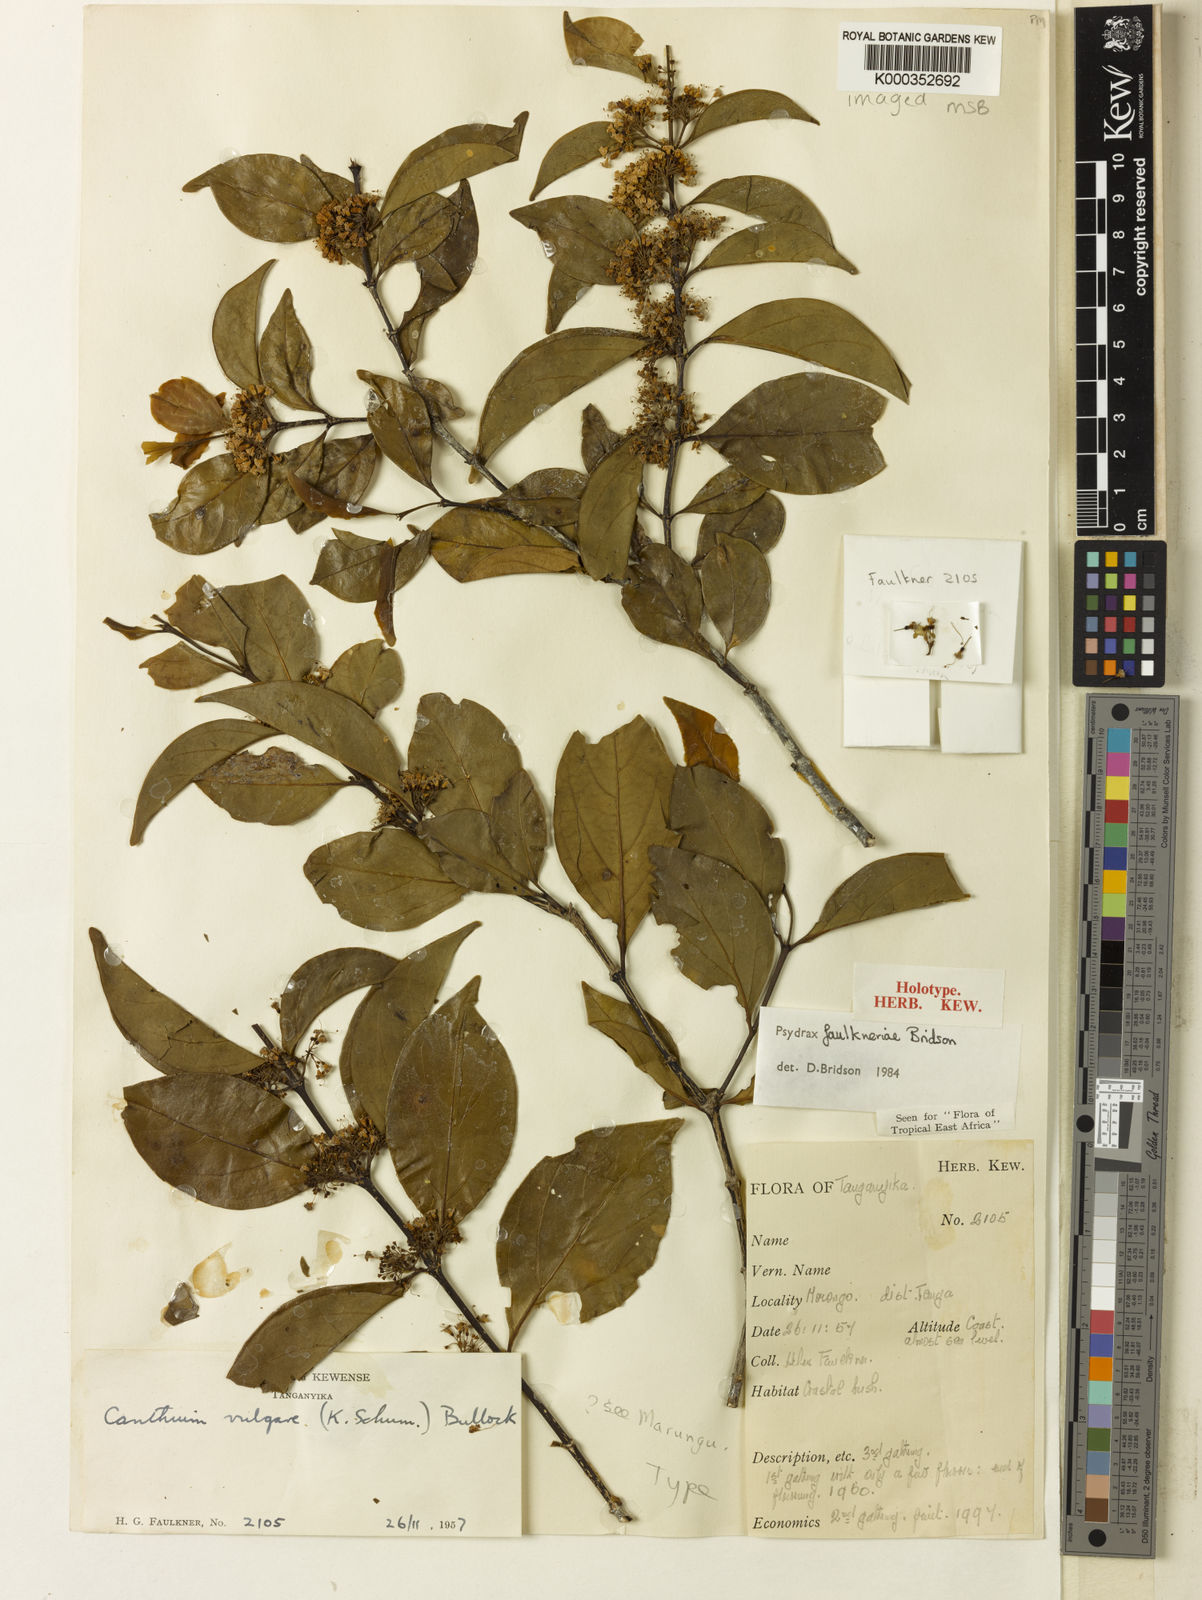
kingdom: Plantae
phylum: Tracheophyta
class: Magnoliopsida
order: Gentianales
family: Rubiaceae
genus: Psydrax
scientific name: Psydrax faulknerae
